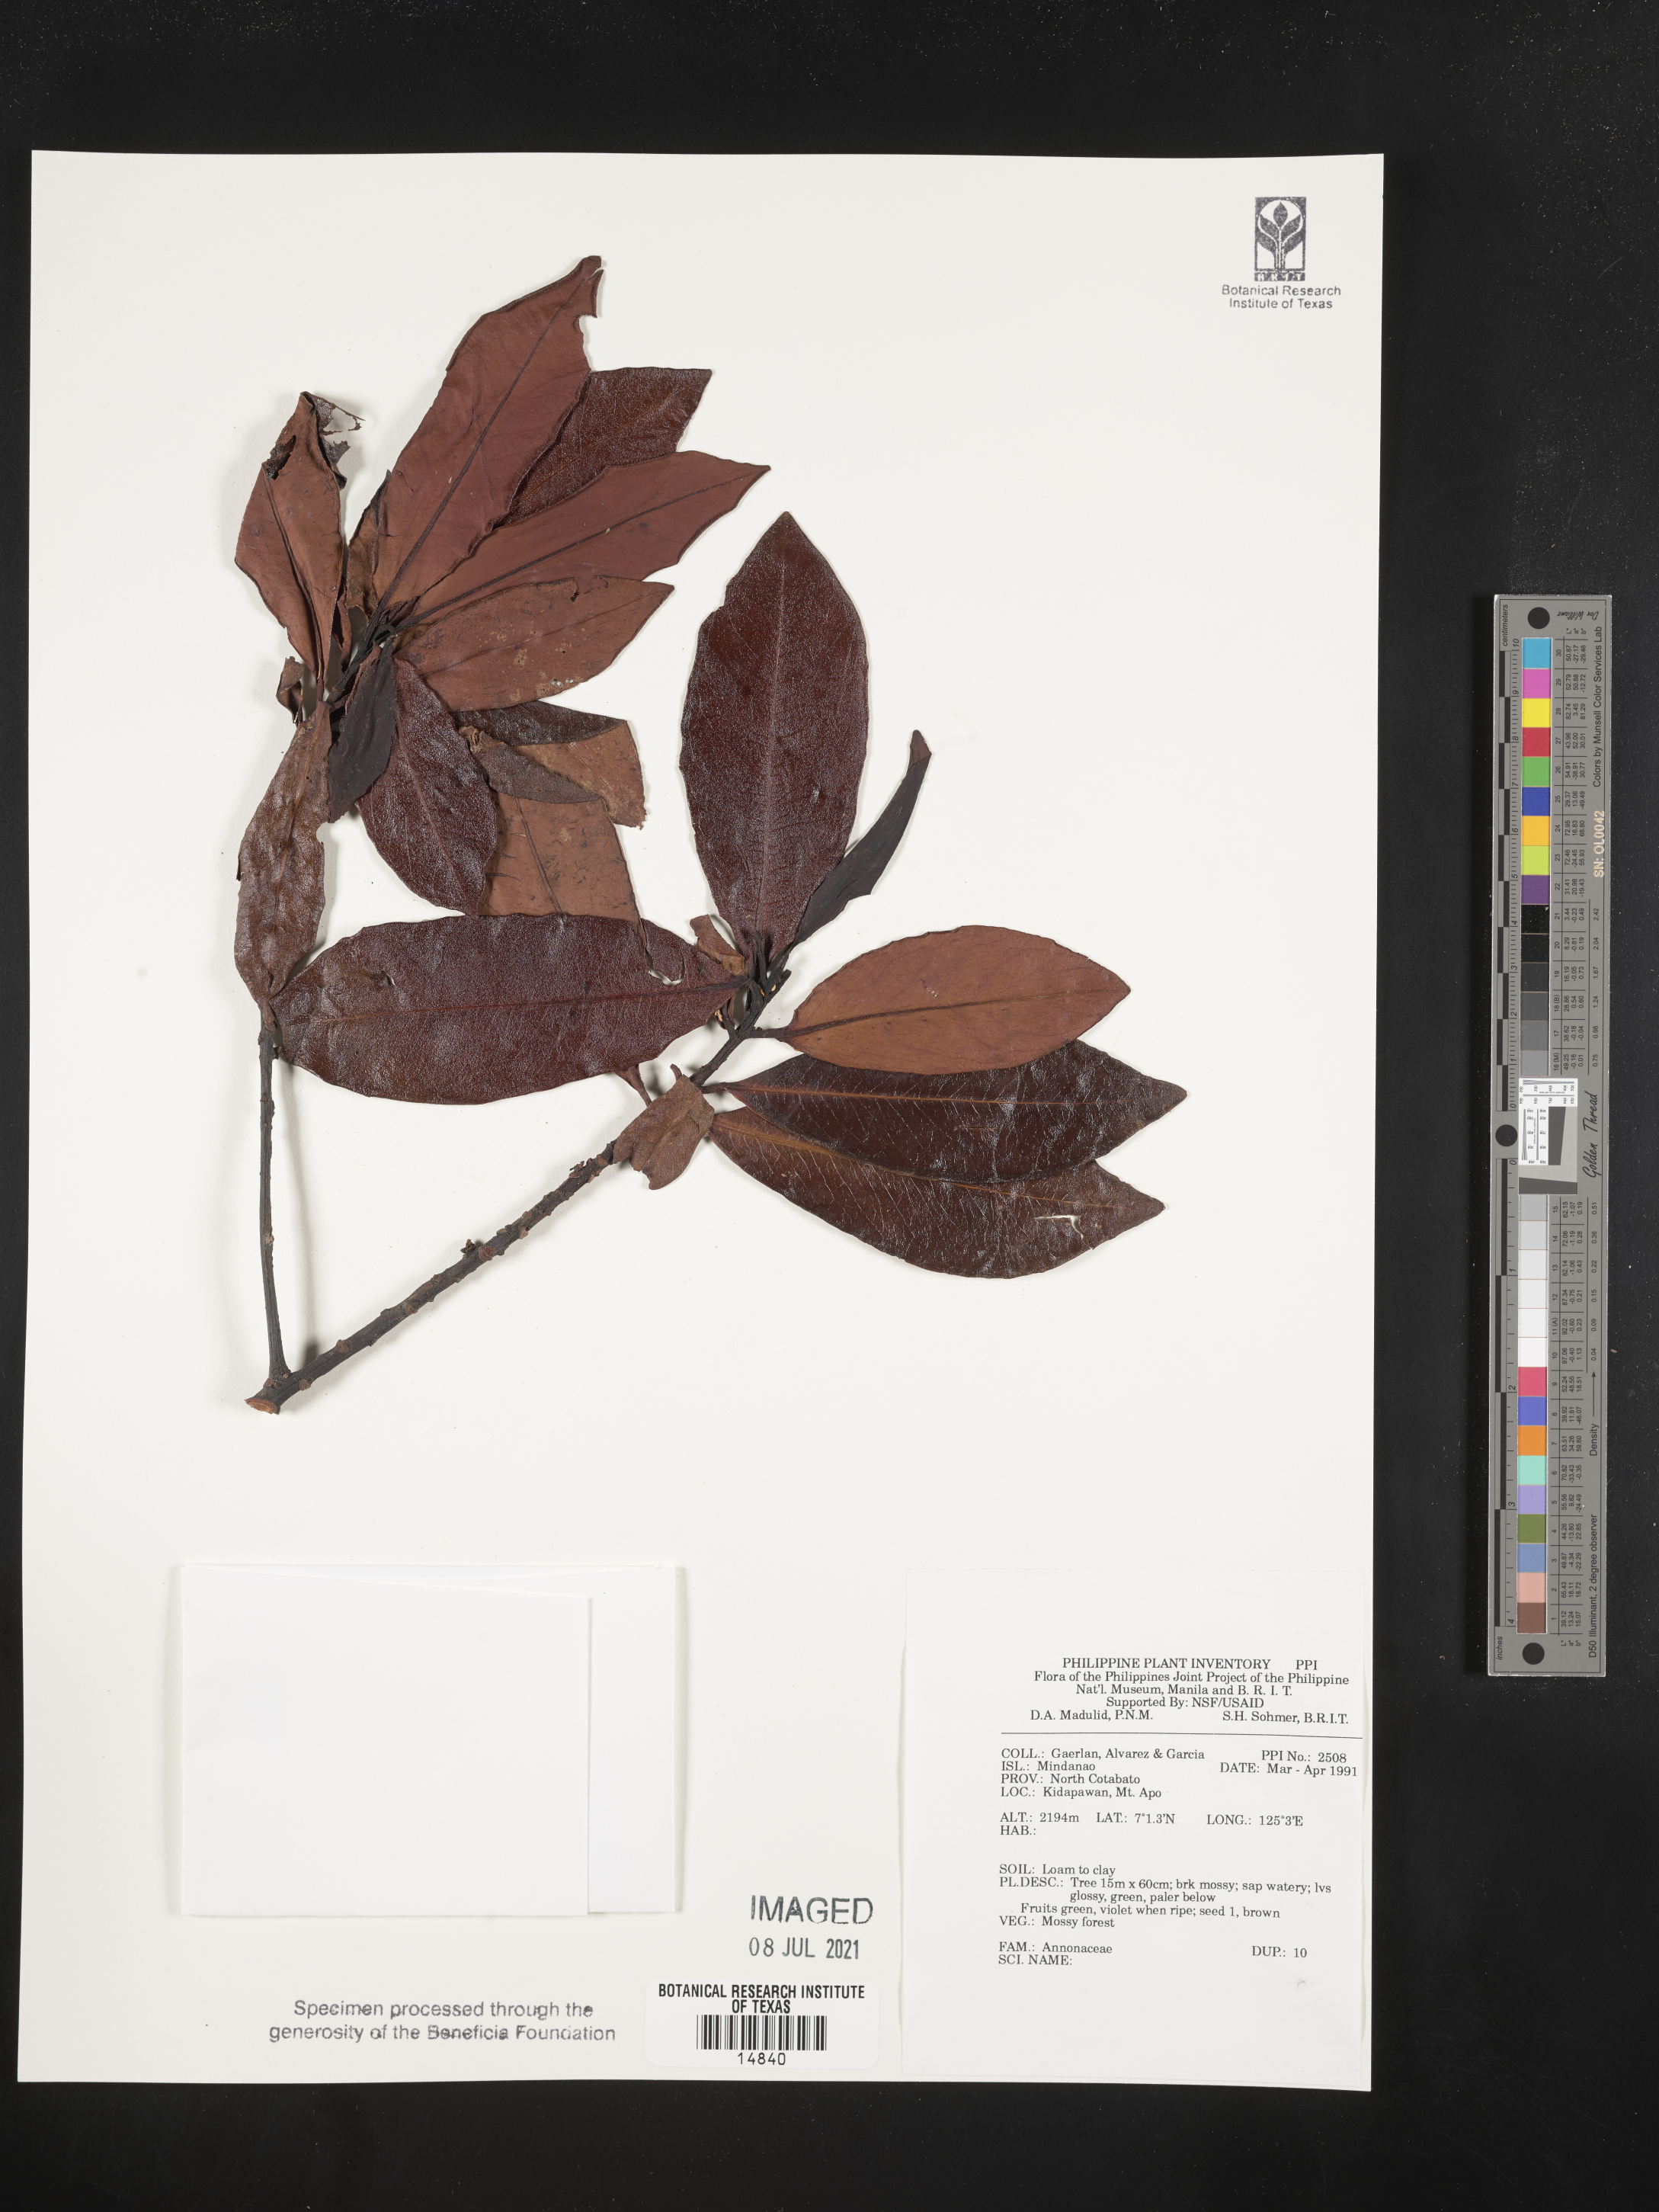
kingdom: Plantae
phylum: Tracheophyta
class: Magnoliopsida
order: Magnoliales
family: Annonaceae
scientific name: Annonaceae
